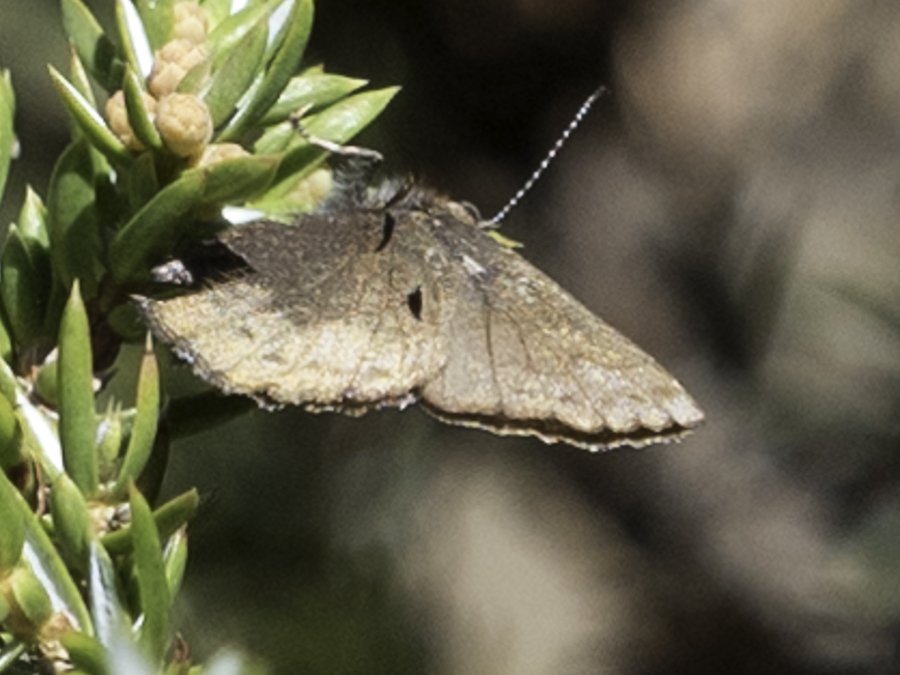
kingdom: Animalia
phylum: Arthropoda
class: Insecta
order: Lepidoptera
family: Lycaenidae
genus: Incisalia
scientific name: Incisalia irioides
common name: Brown Elfin
